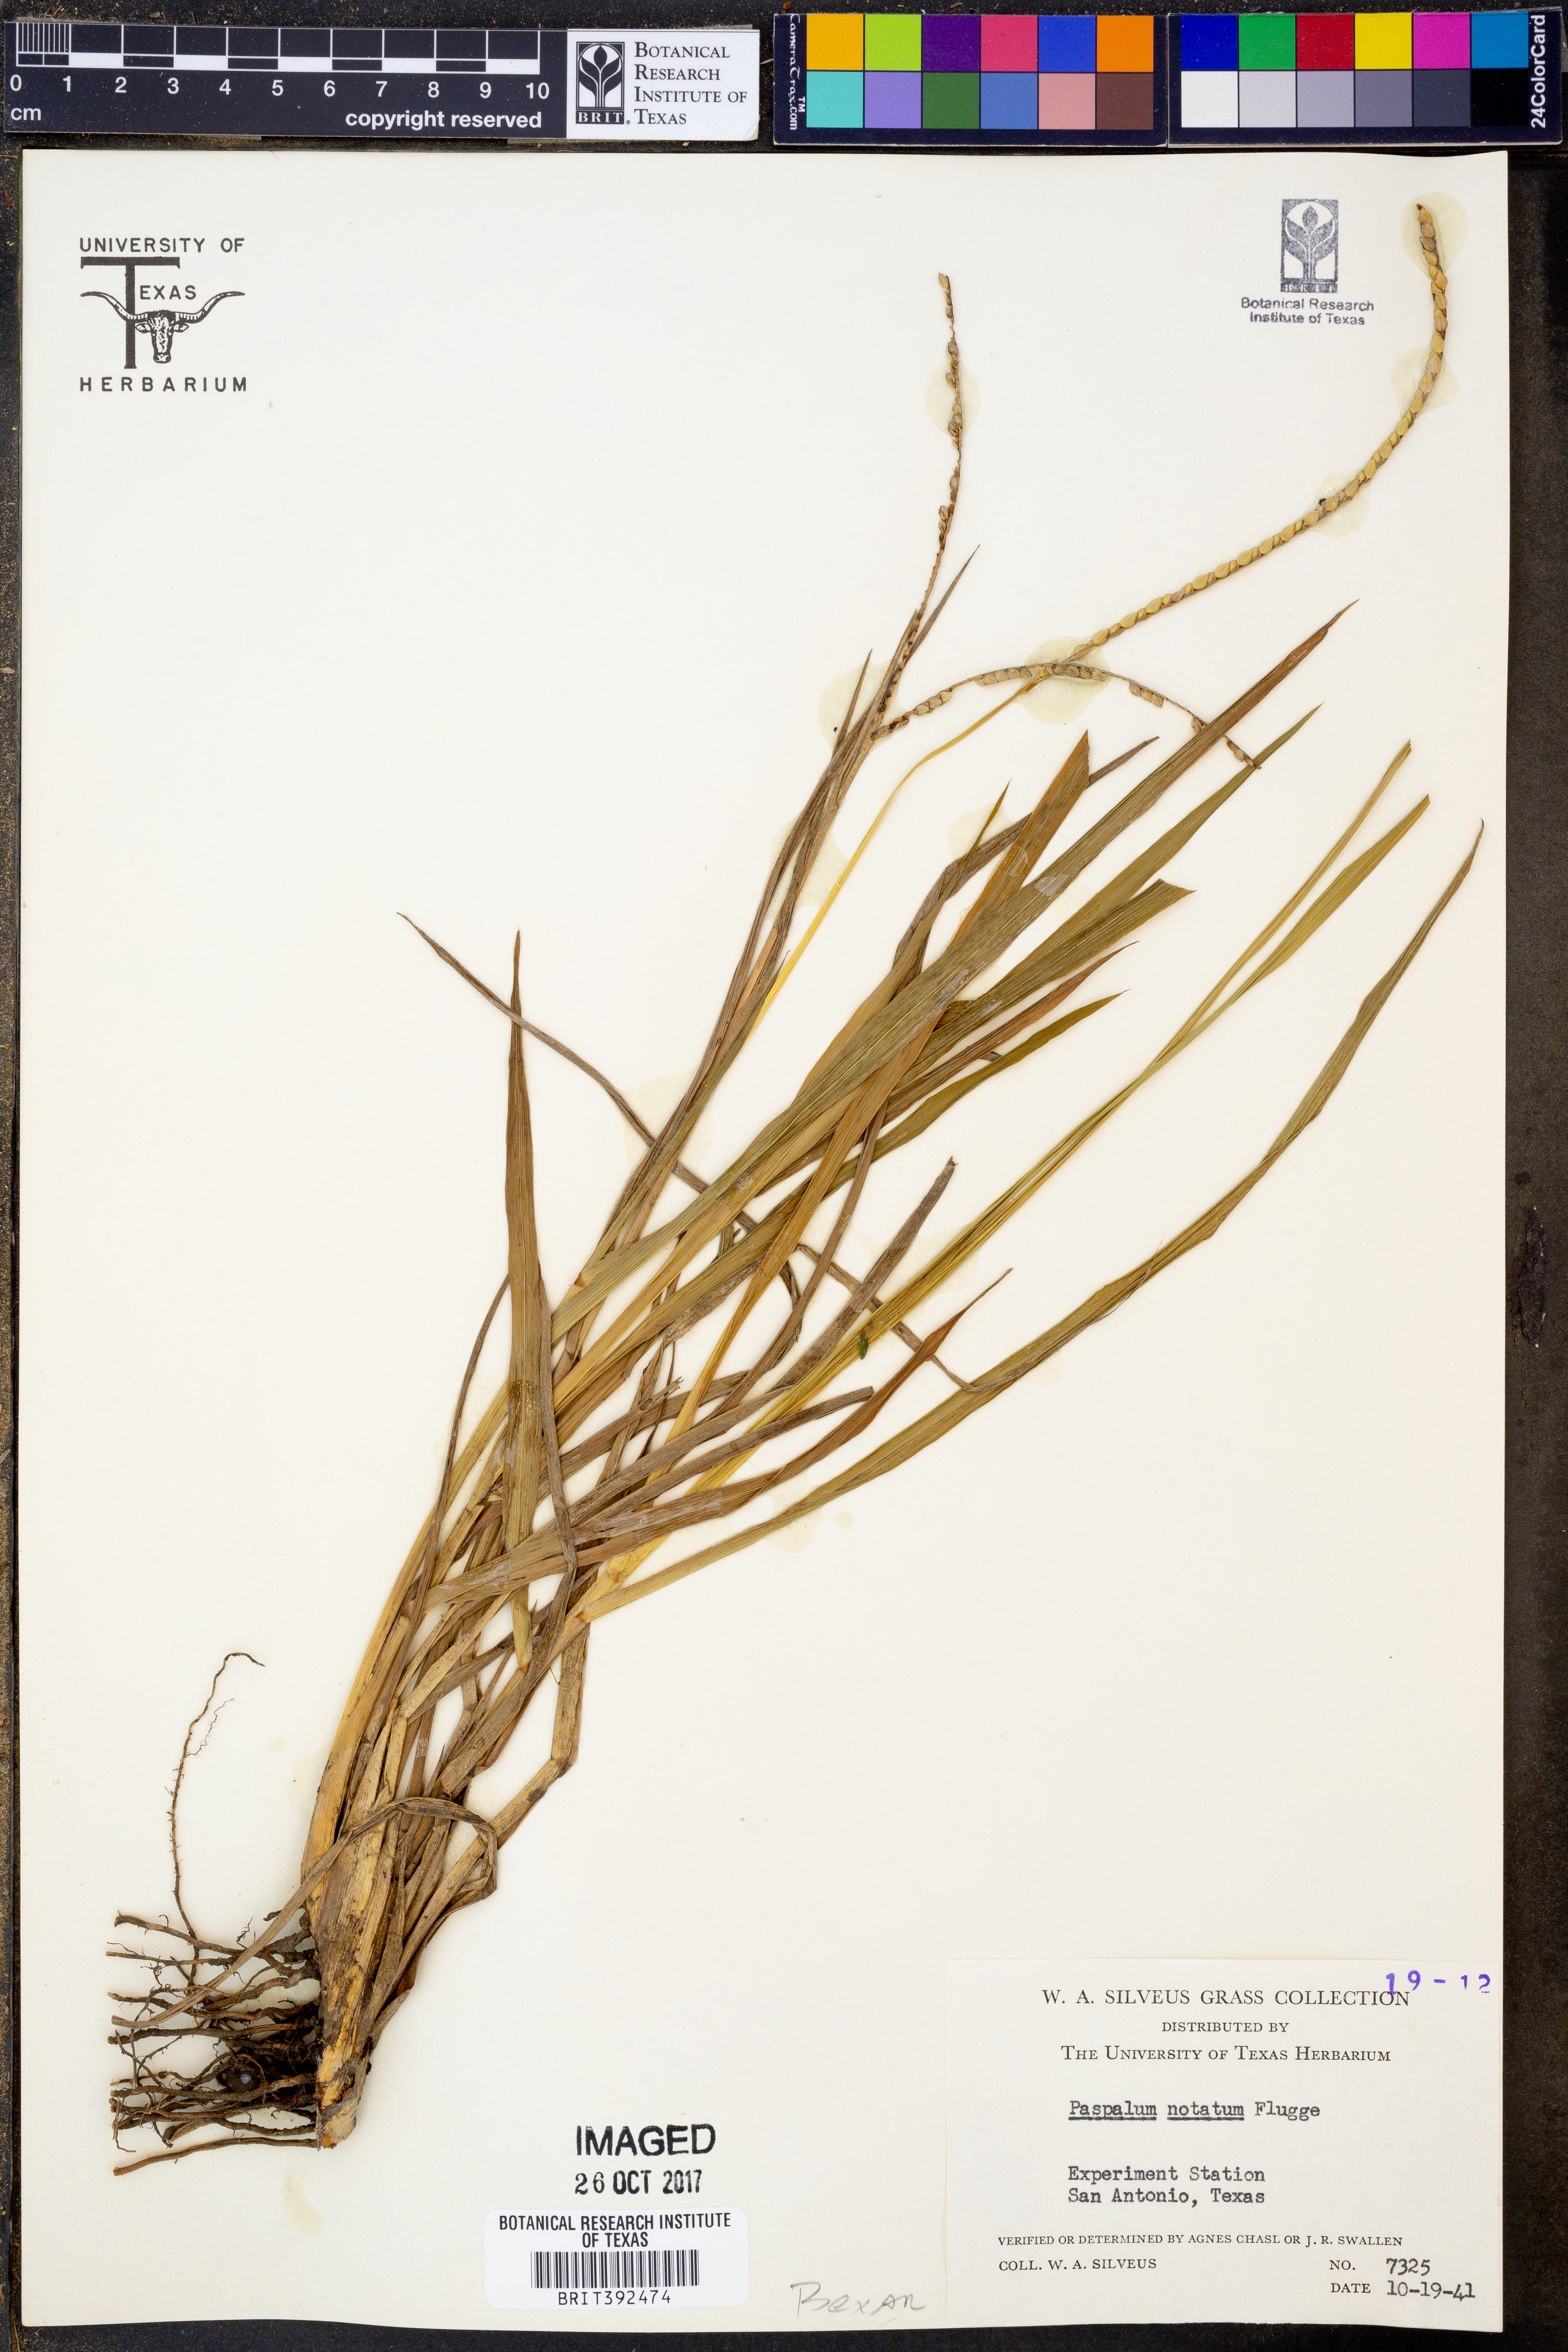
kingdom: Plantae
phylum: Tracheophyta
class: Liliopsida
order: Poales
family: Poaceae
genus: Paspalum
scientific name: Paspalum notatum
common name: Bahiagrass
